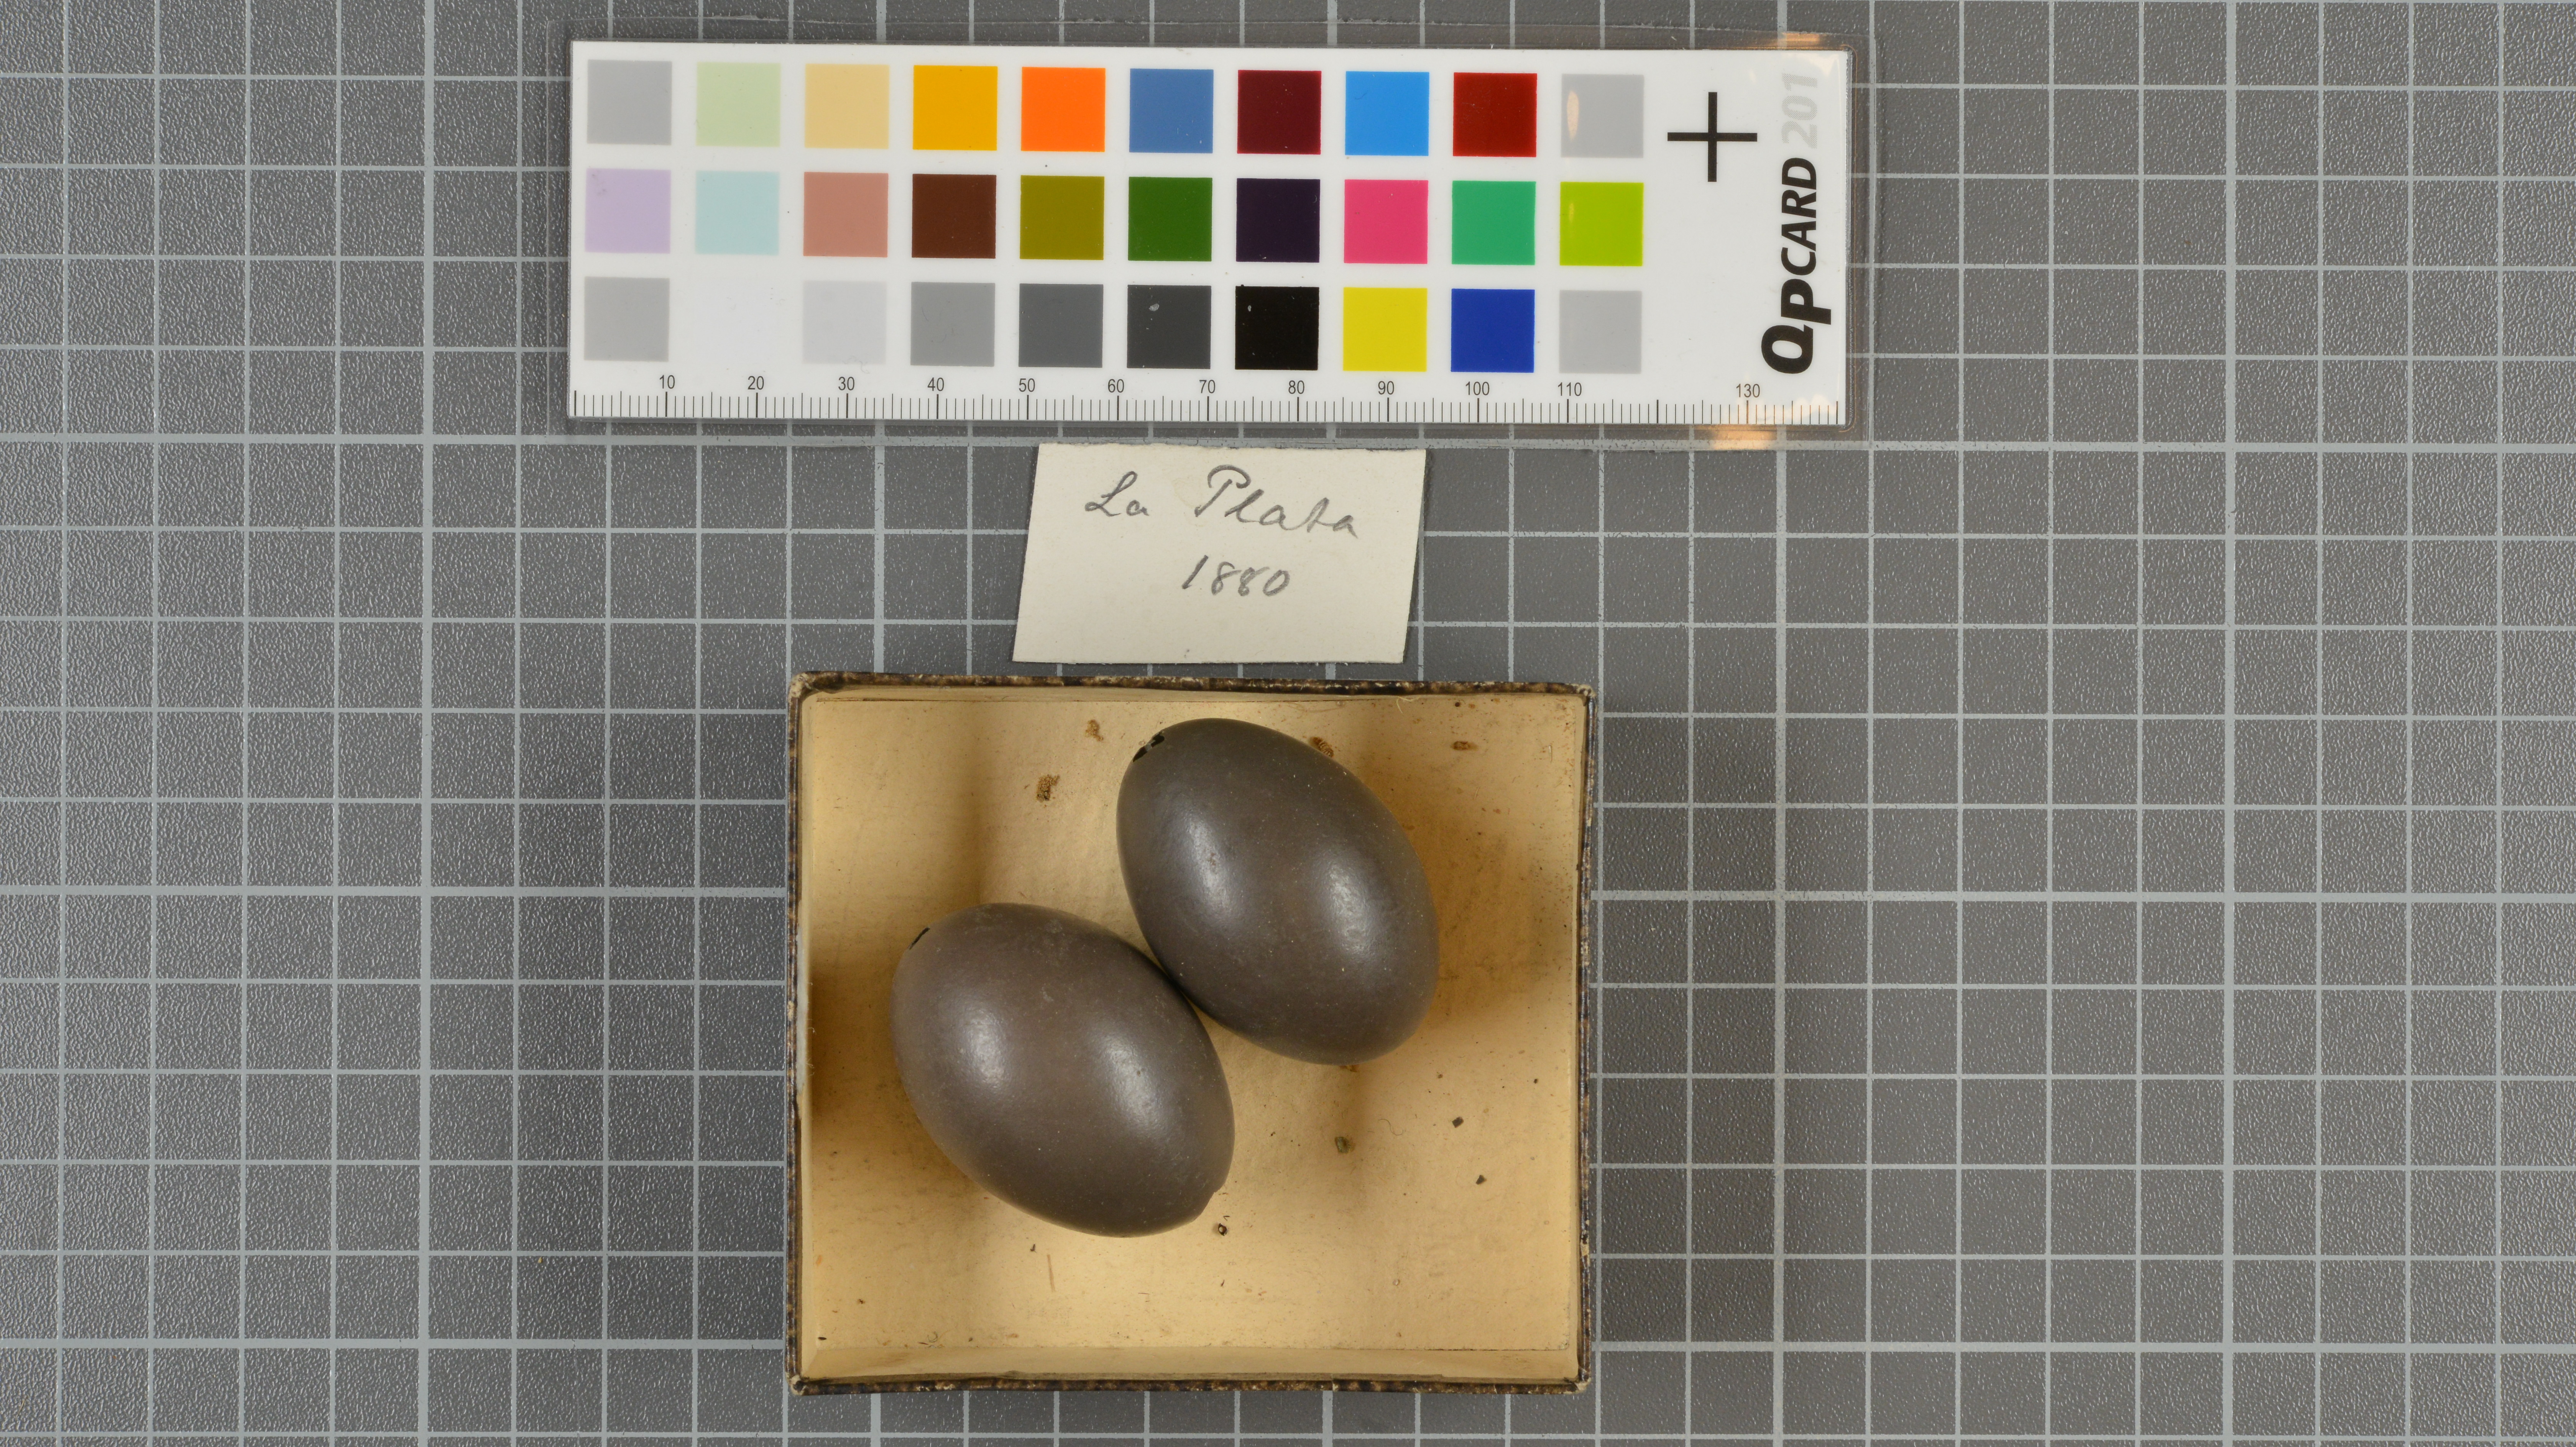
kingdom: Animalia
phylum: Chordata
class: Aves
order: Tinamiformes
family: Tinamidae
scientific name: Tinamidae
